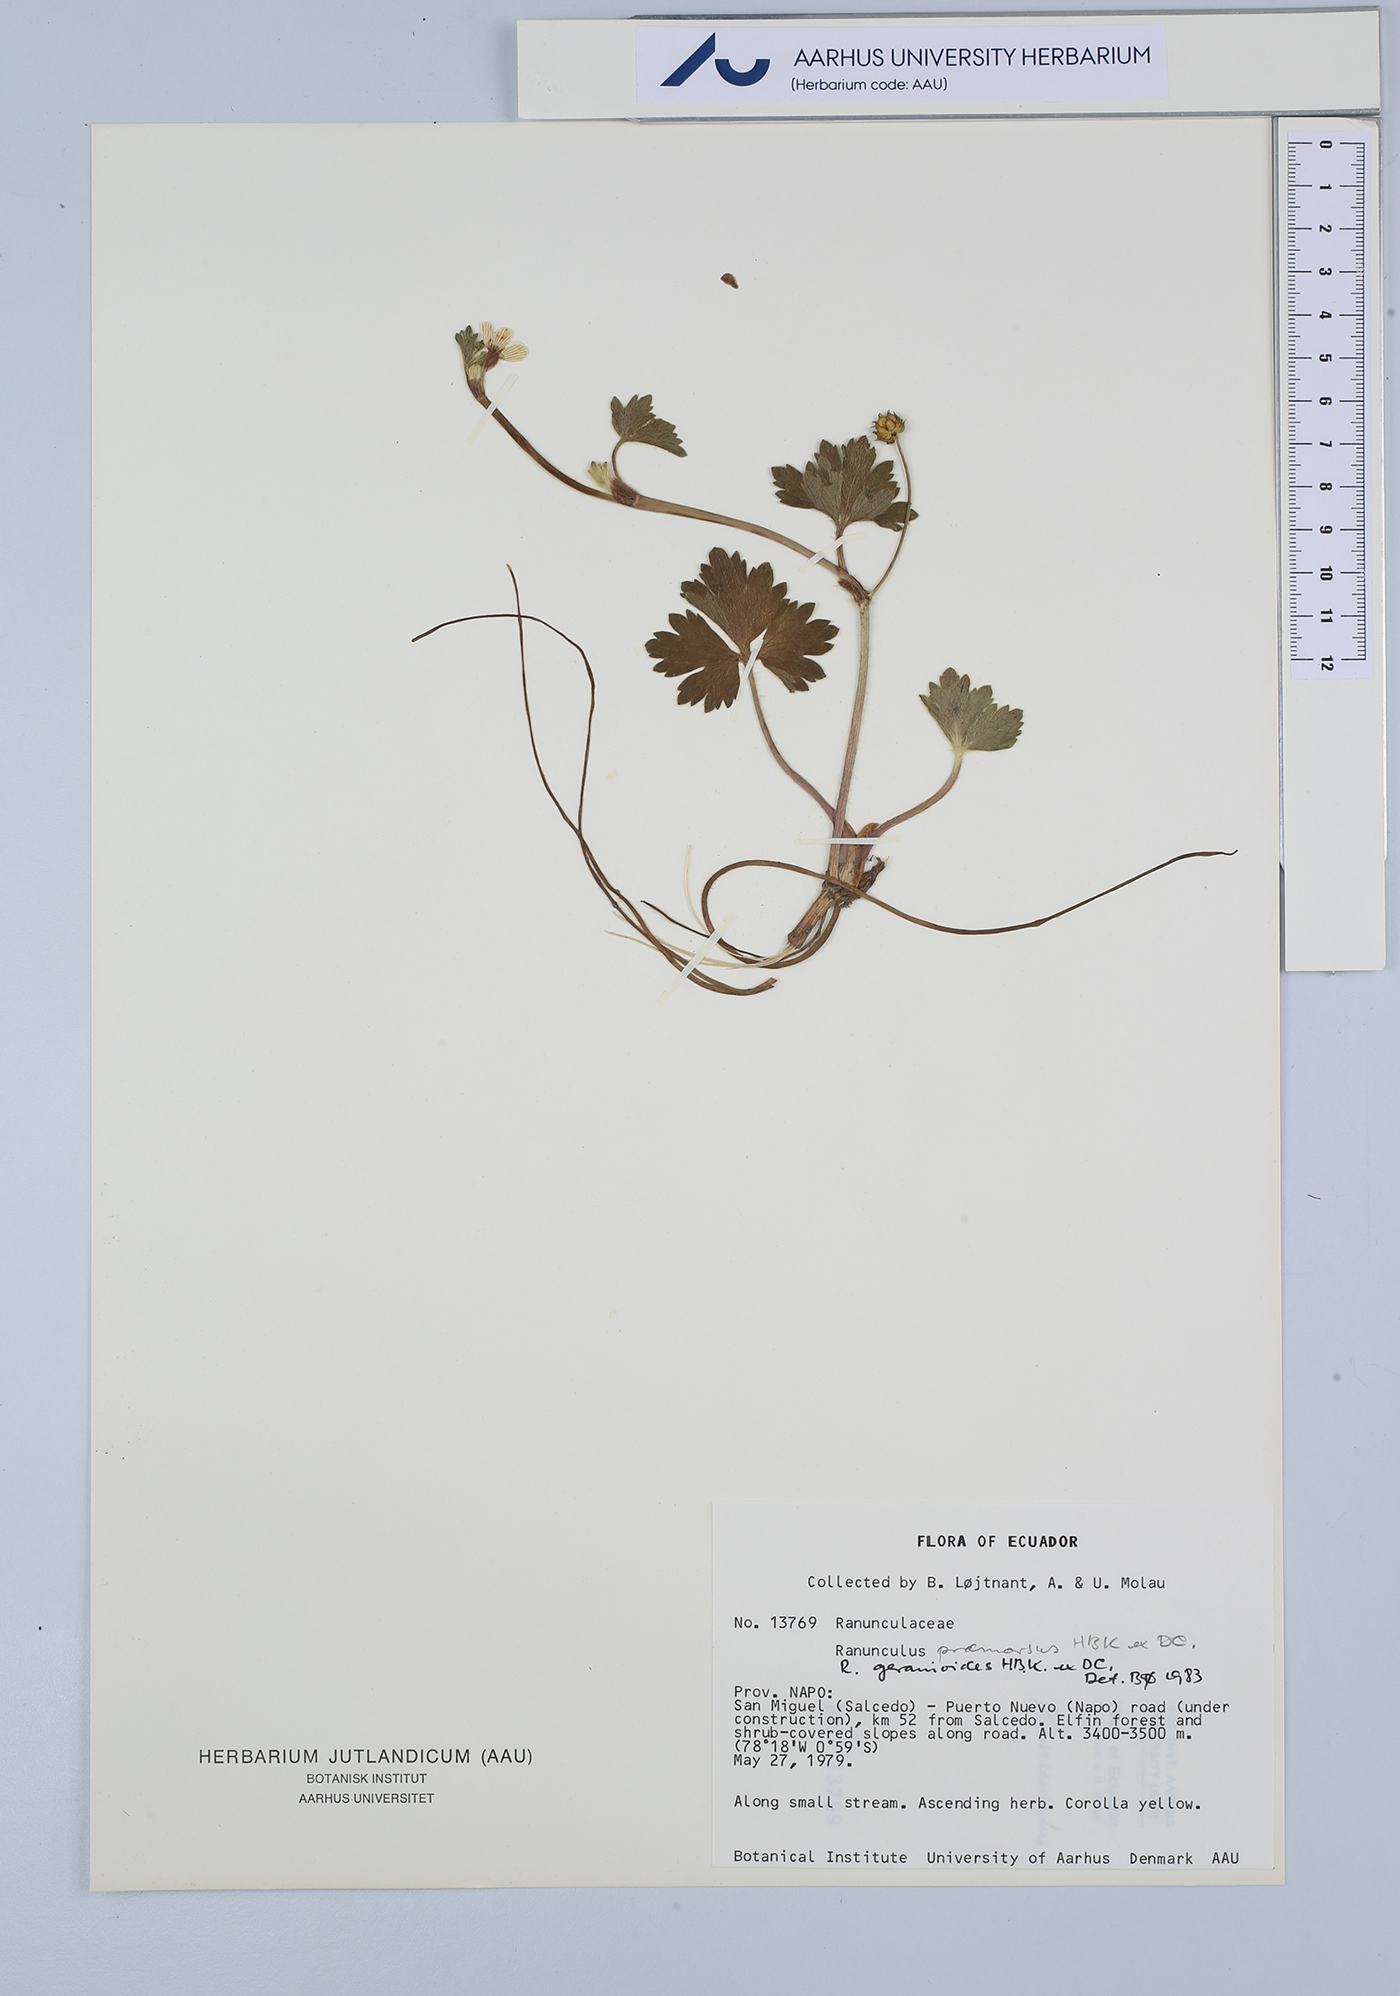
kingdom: Plantae
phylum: Tracheophyta
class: Magnoliopsida
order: Ranunculales
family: Ranunculaceae
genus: Ranunculus
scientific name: Ranunculus geranioides
